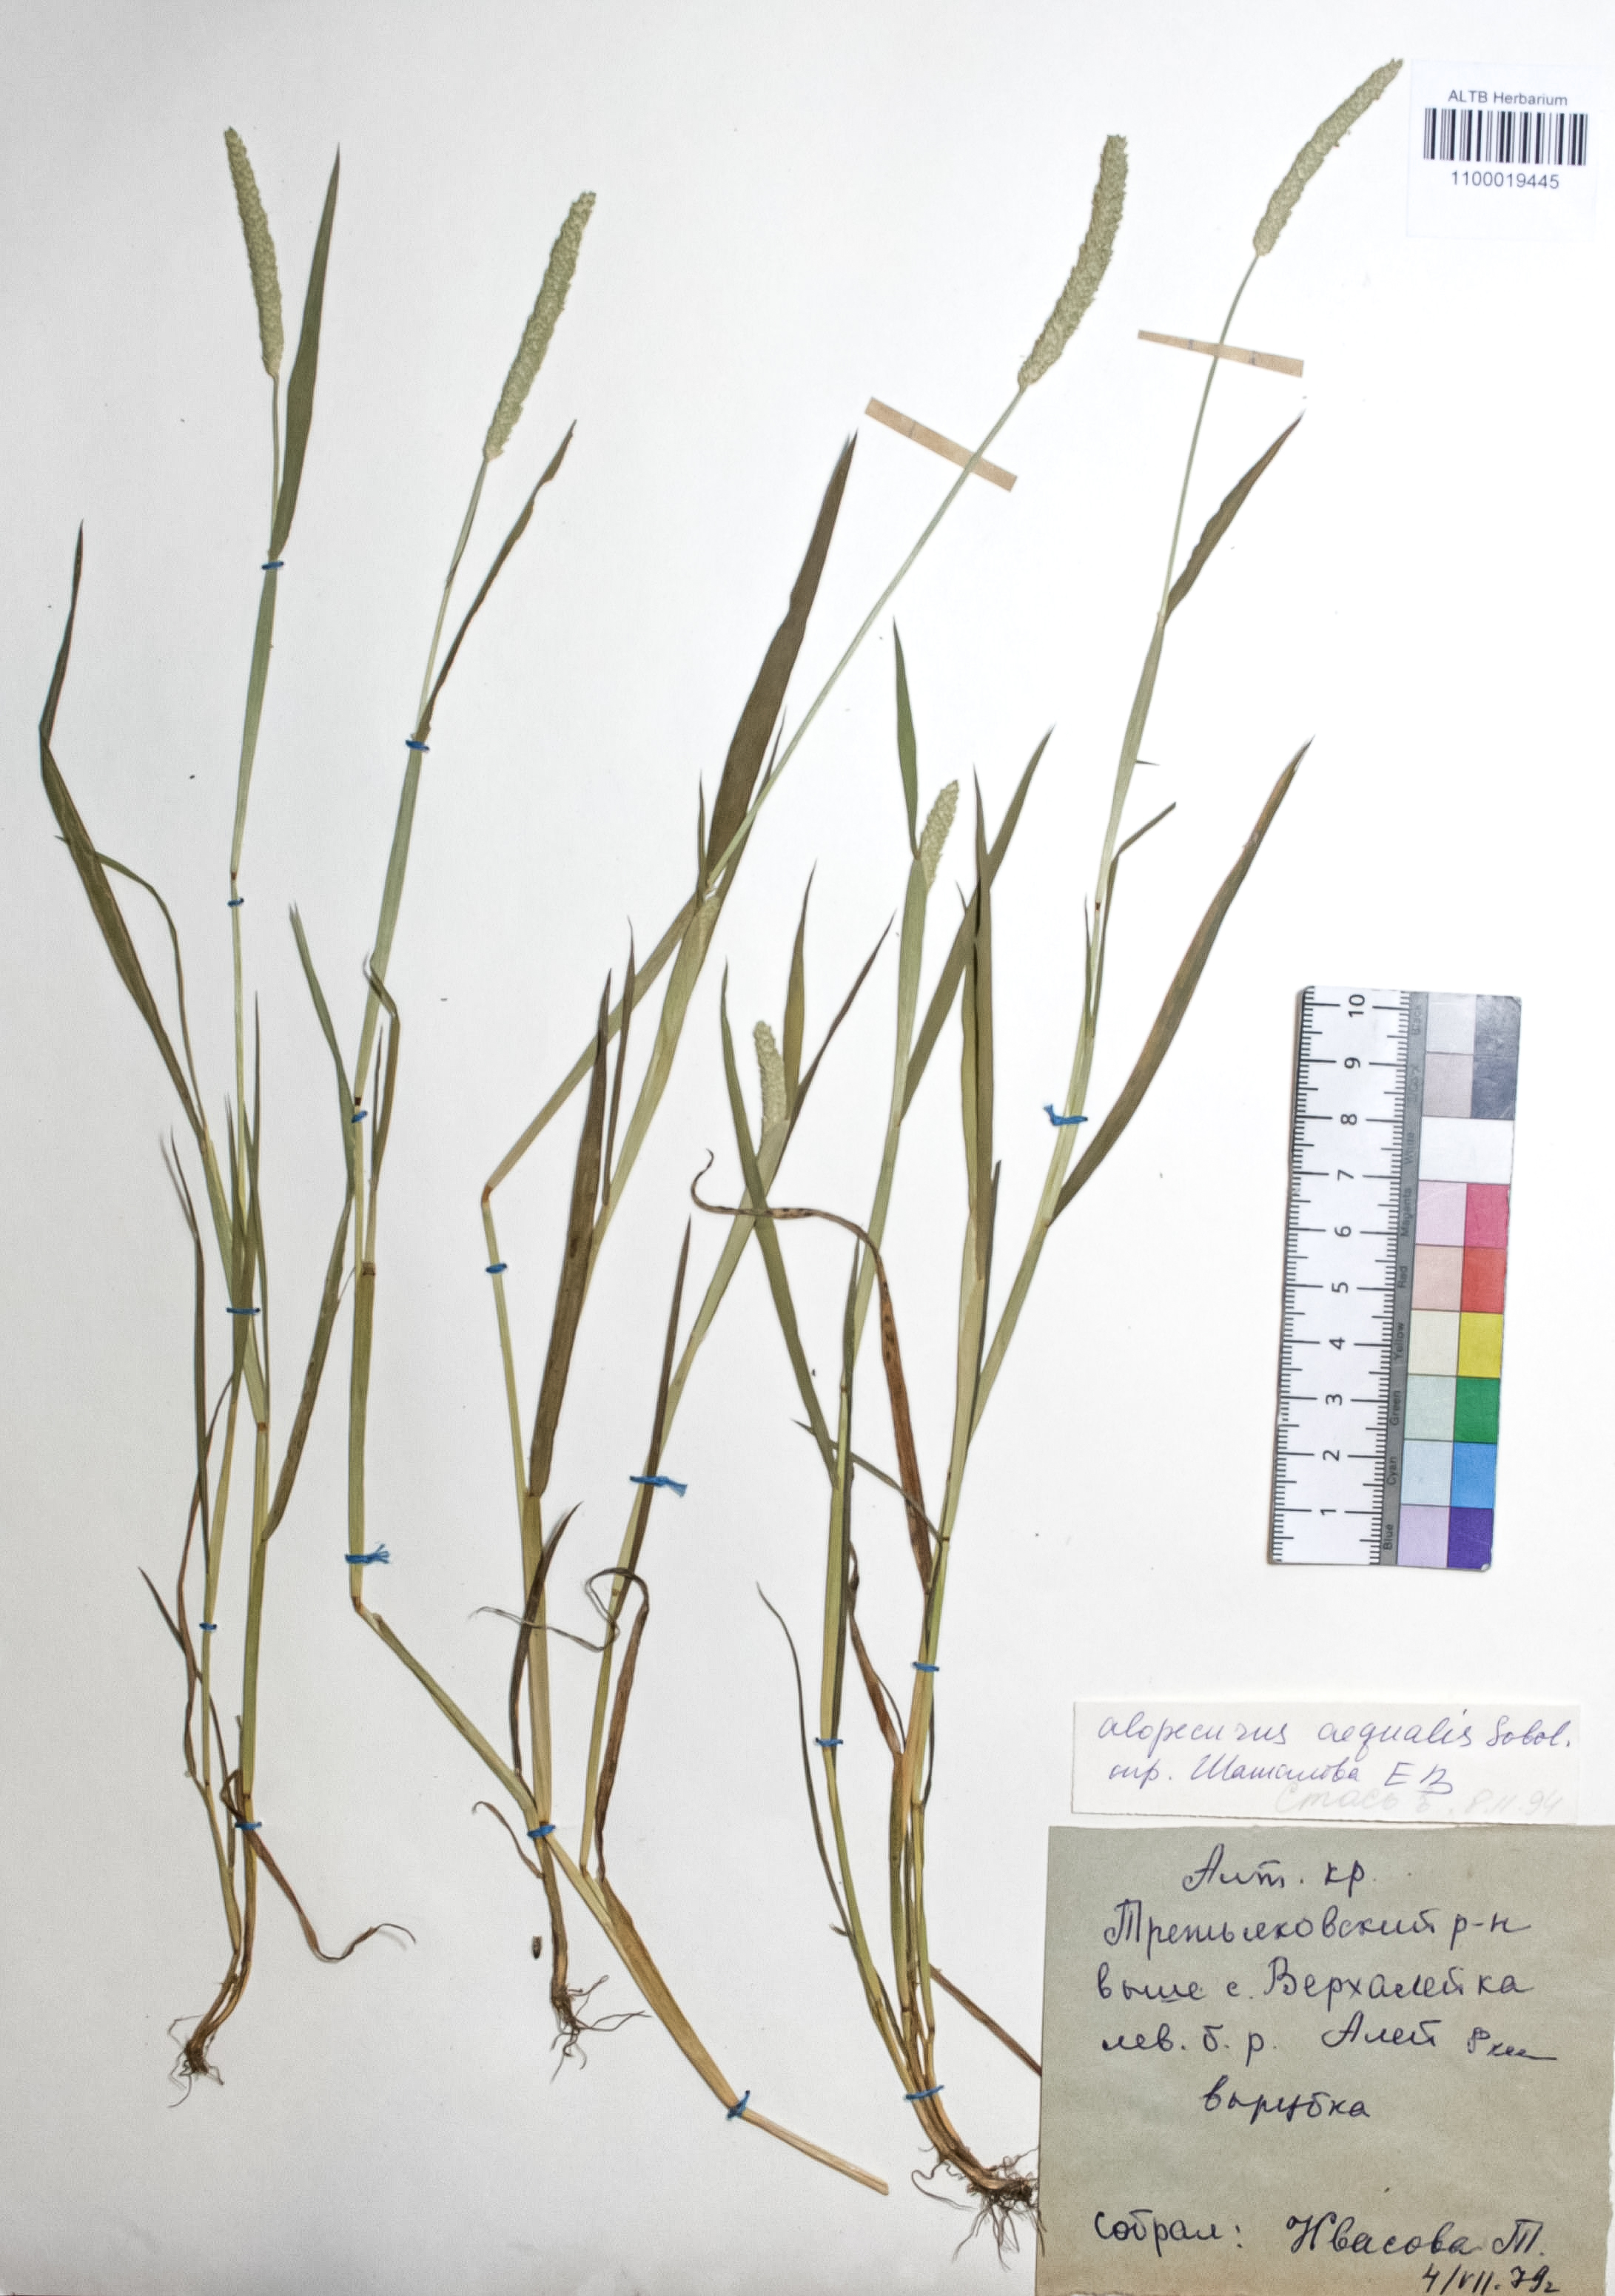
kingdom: Plantae
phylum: Tracheophyta
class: Liliopsida
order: Poales
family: Poaceae
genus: Alopecurus
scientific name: Alopecurus aequalis
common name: Orange foxtail
